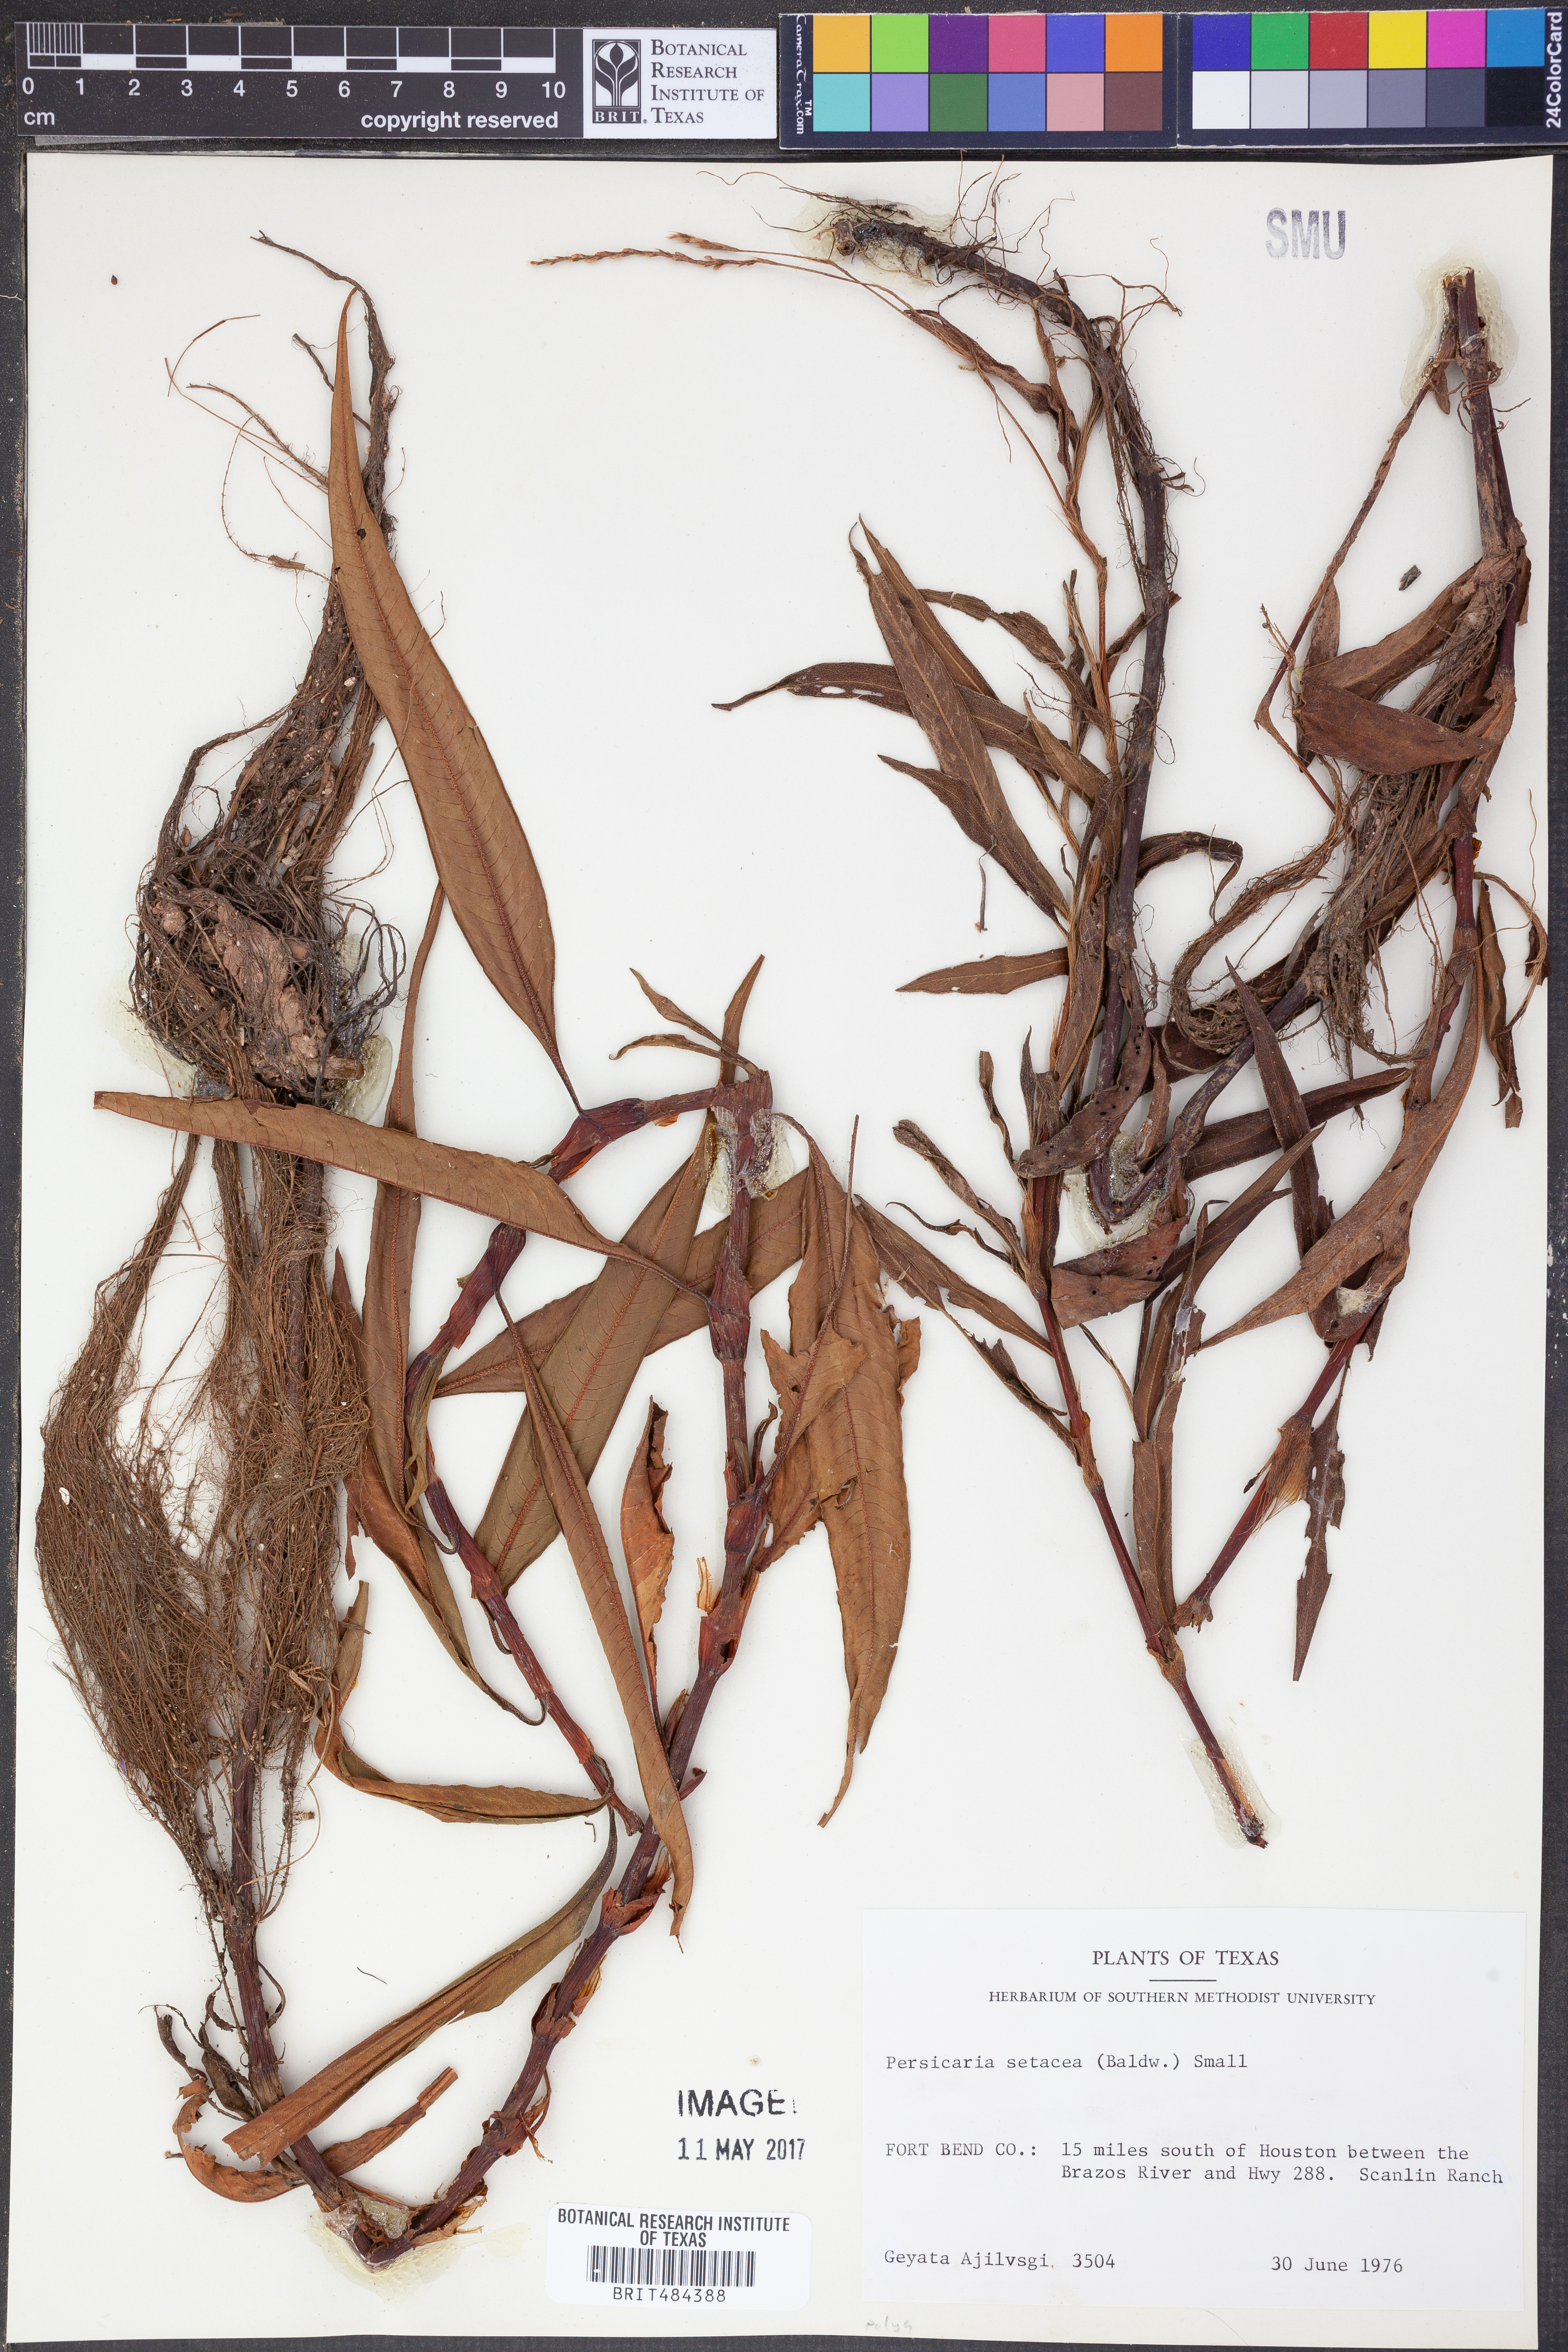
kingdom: Plantae
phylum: Tracheophyta
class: Magnoliopsida
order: Caryophyllales
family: Polygonaceae
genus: Persicaria
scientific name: Persicaria setacea
